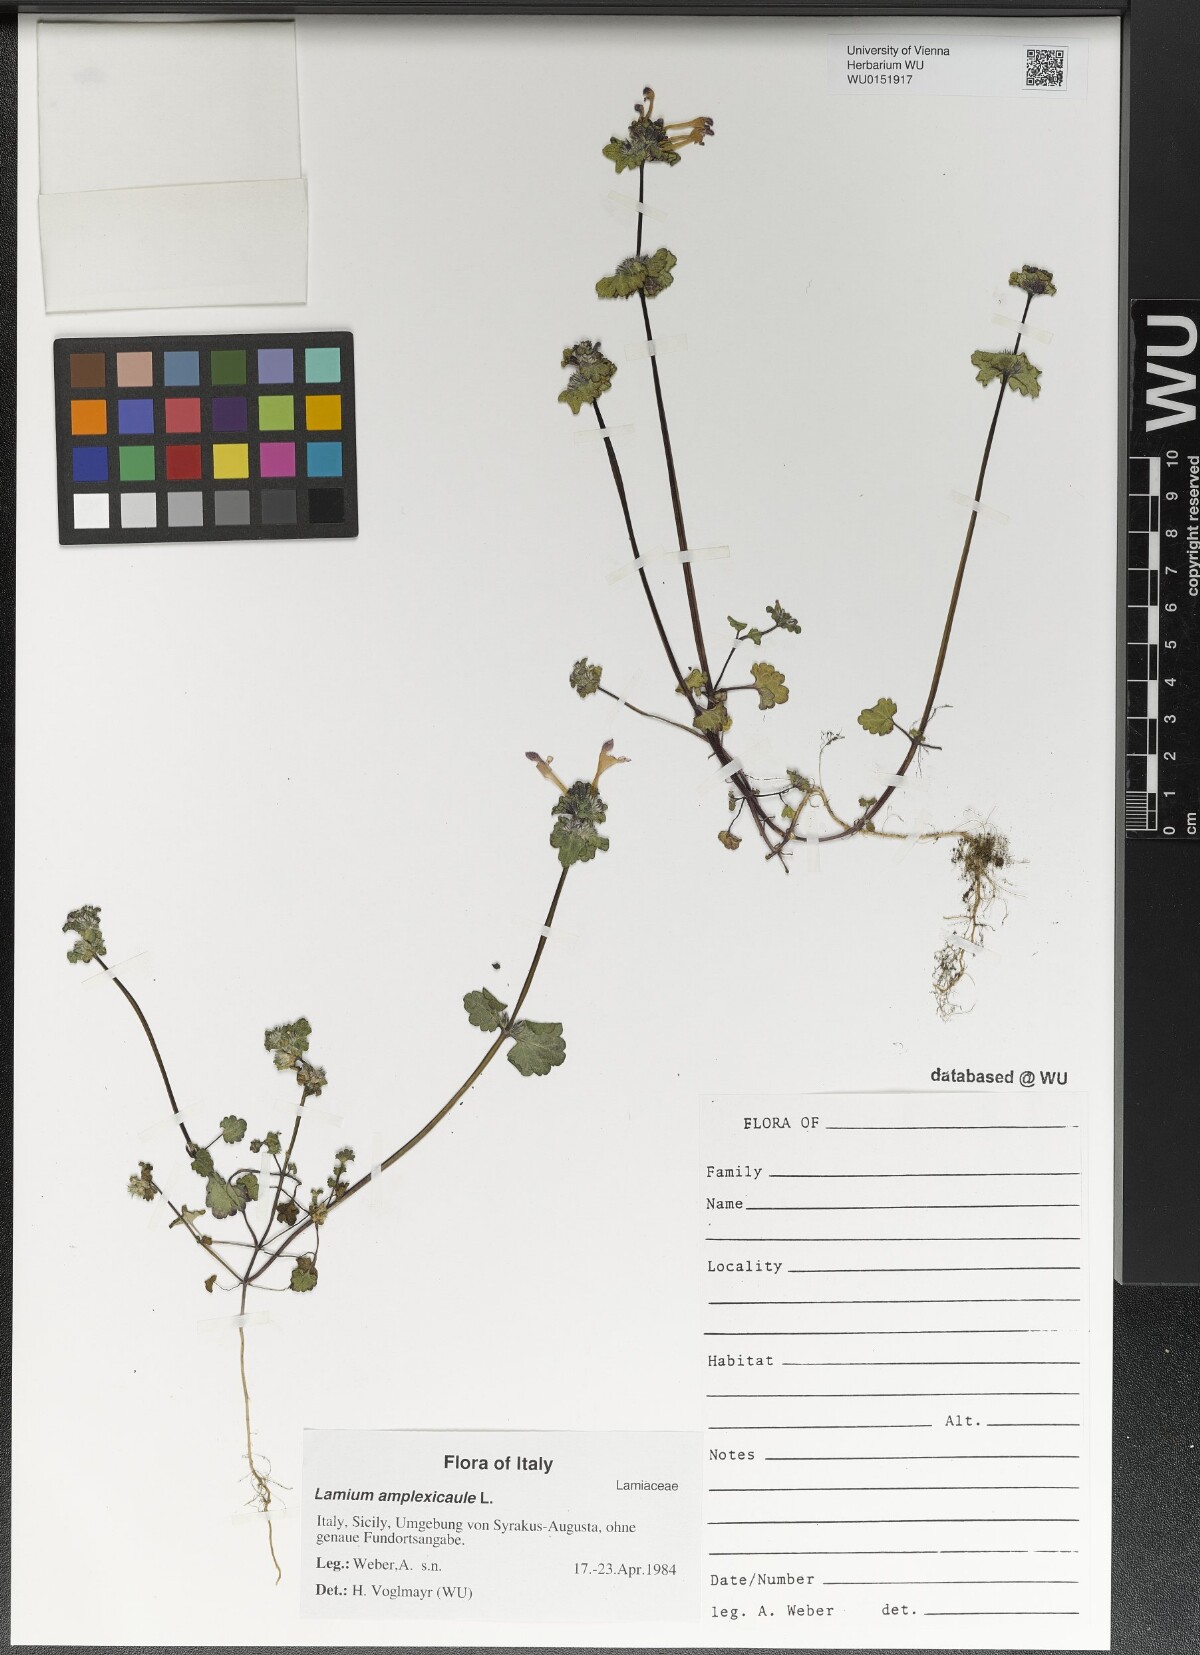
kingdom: Plantae
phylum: Tracheophyta
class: Magnoliopsida
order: Lamiales
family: Lamiaceae
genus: Lamium
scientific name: Lamium amplexicaule
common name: Henbit dead-nettle
